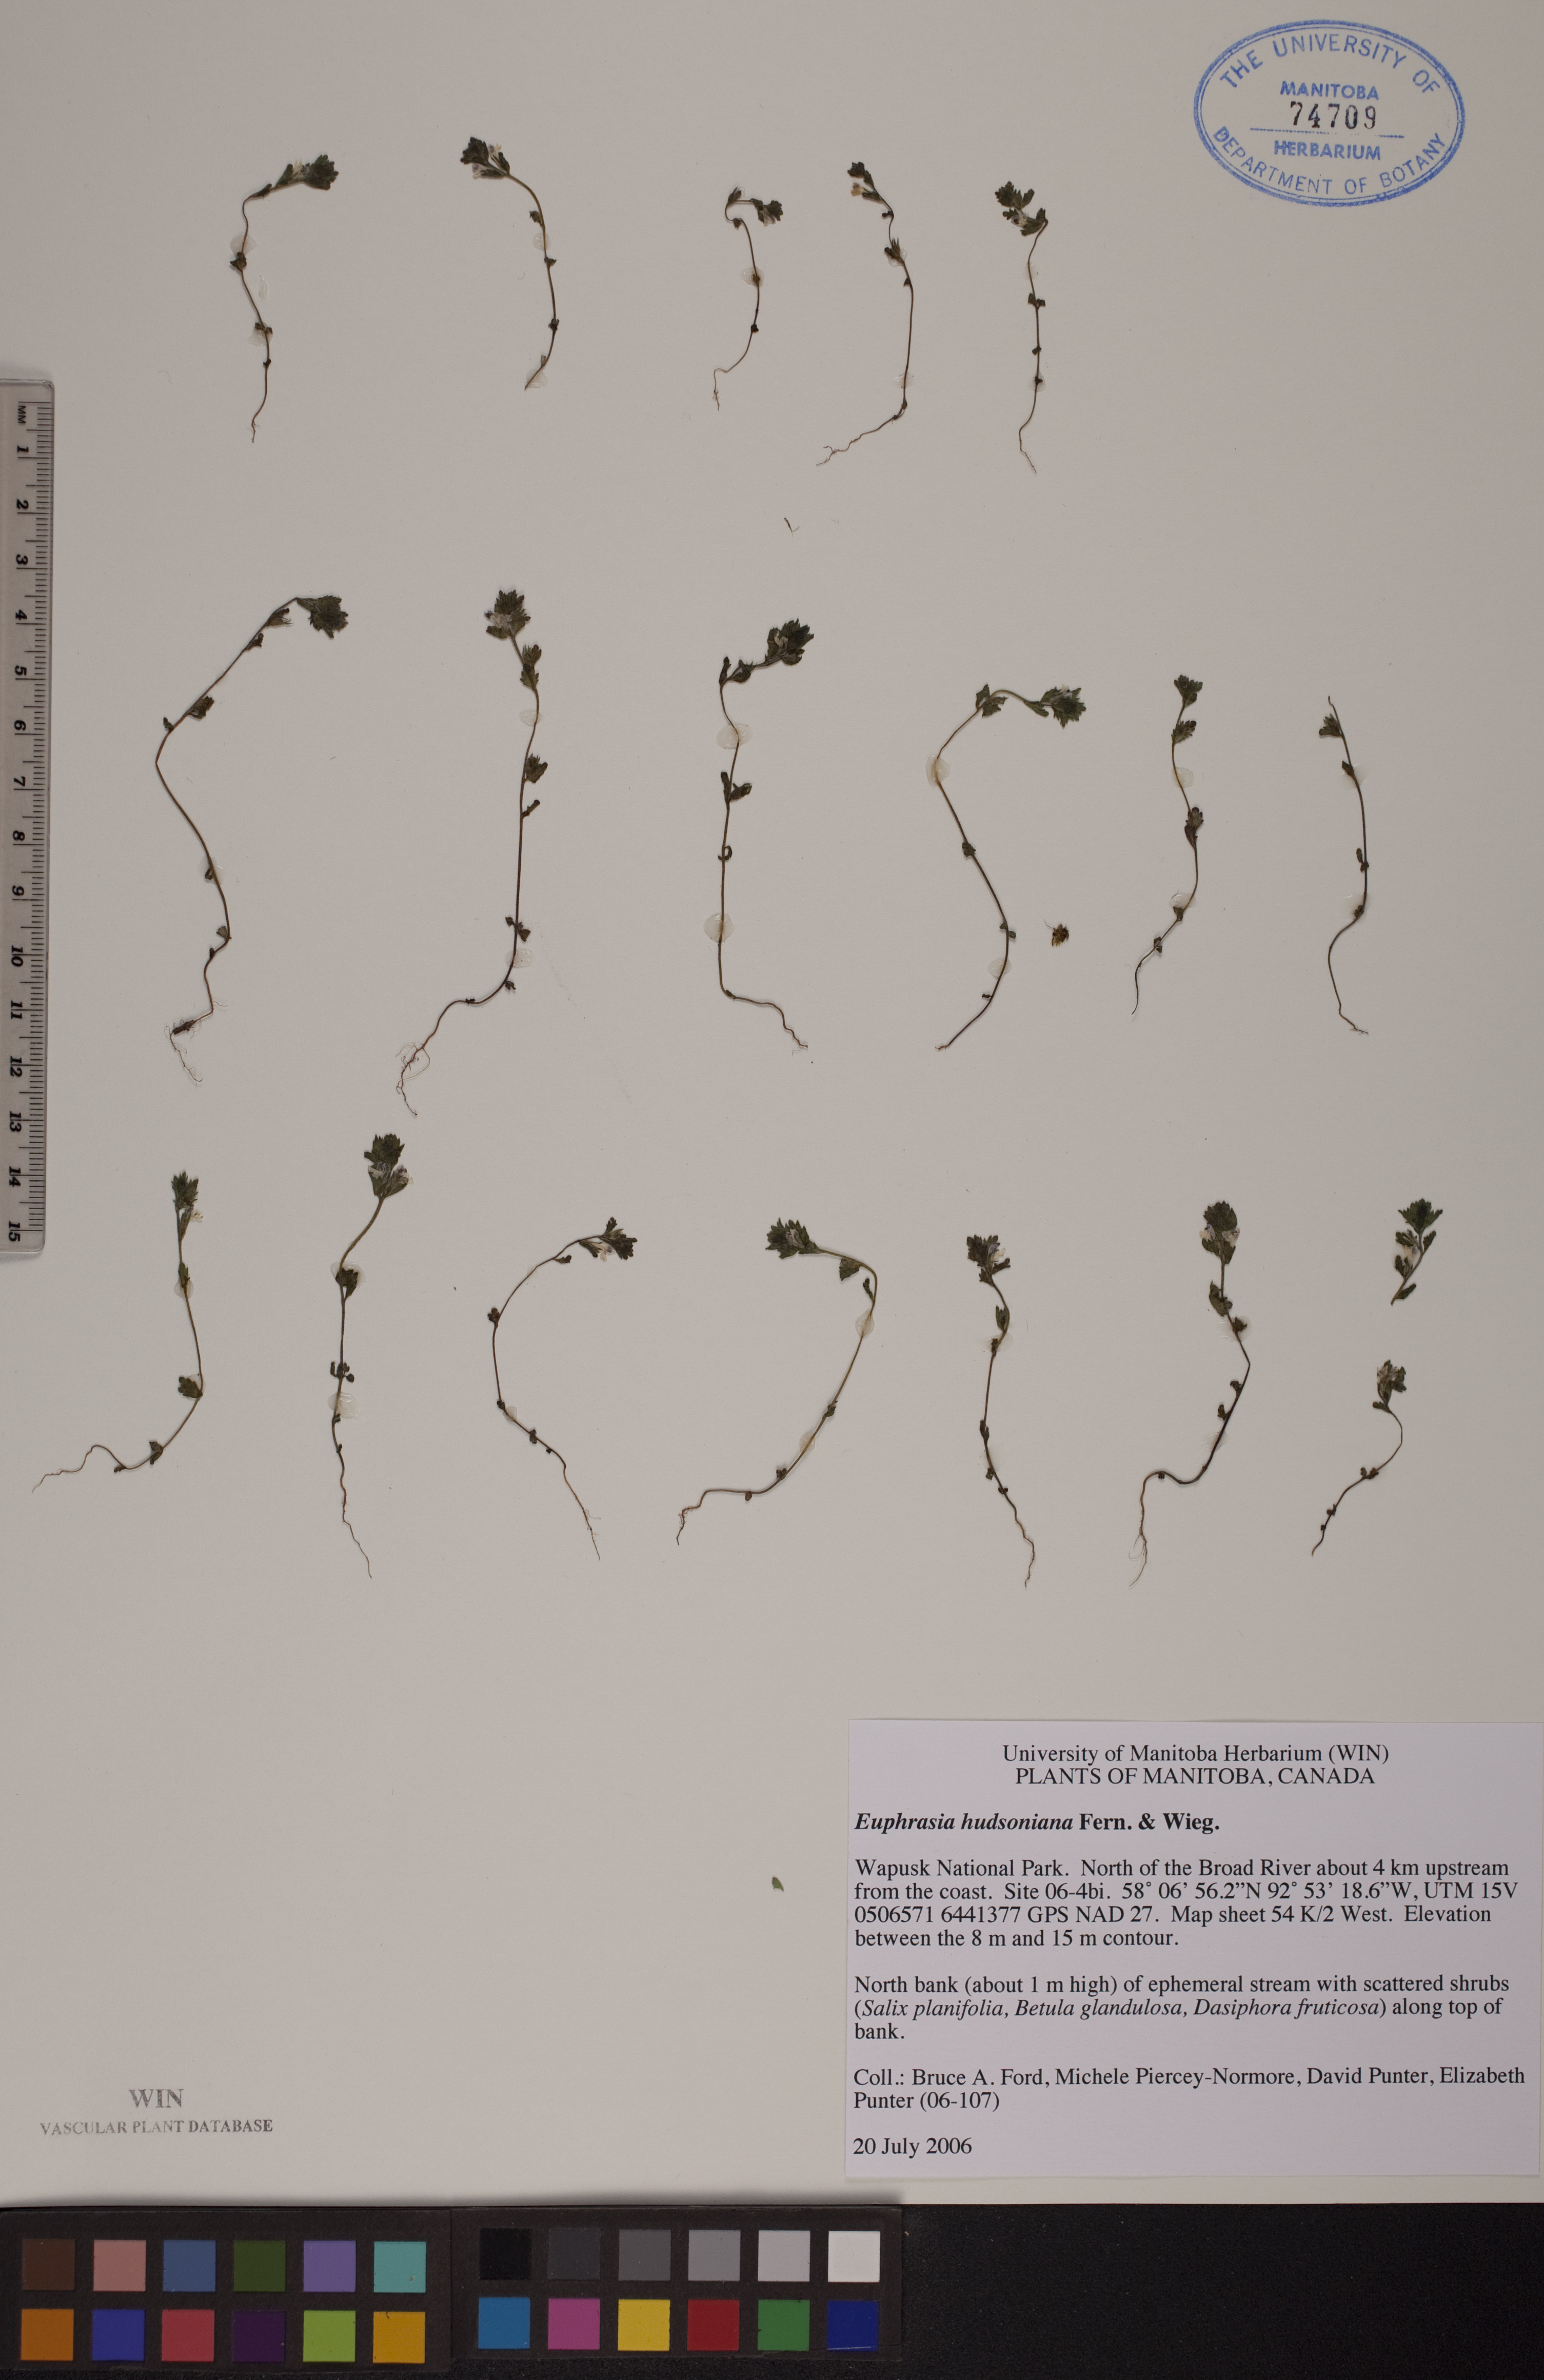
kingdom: Plantae
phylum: Tracheophyta
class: Magnoliopsida
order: Lamiales
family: Orobanchaceae
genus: Euphrasia
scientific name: Euphrasia hudsoniana
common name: Hudson bay eyebright
